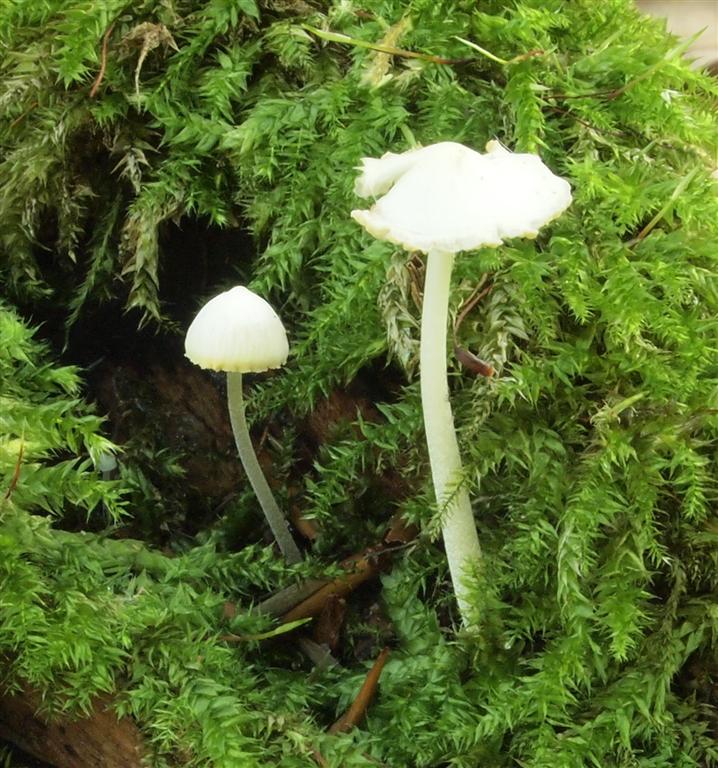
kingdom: Fungi
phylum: Basidiomycota
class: Agaricomycetes
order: Agaricales
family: Porotheleaceae
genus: Phloeomana
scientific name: Phloeomana minutula
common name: bleg huesvamp
